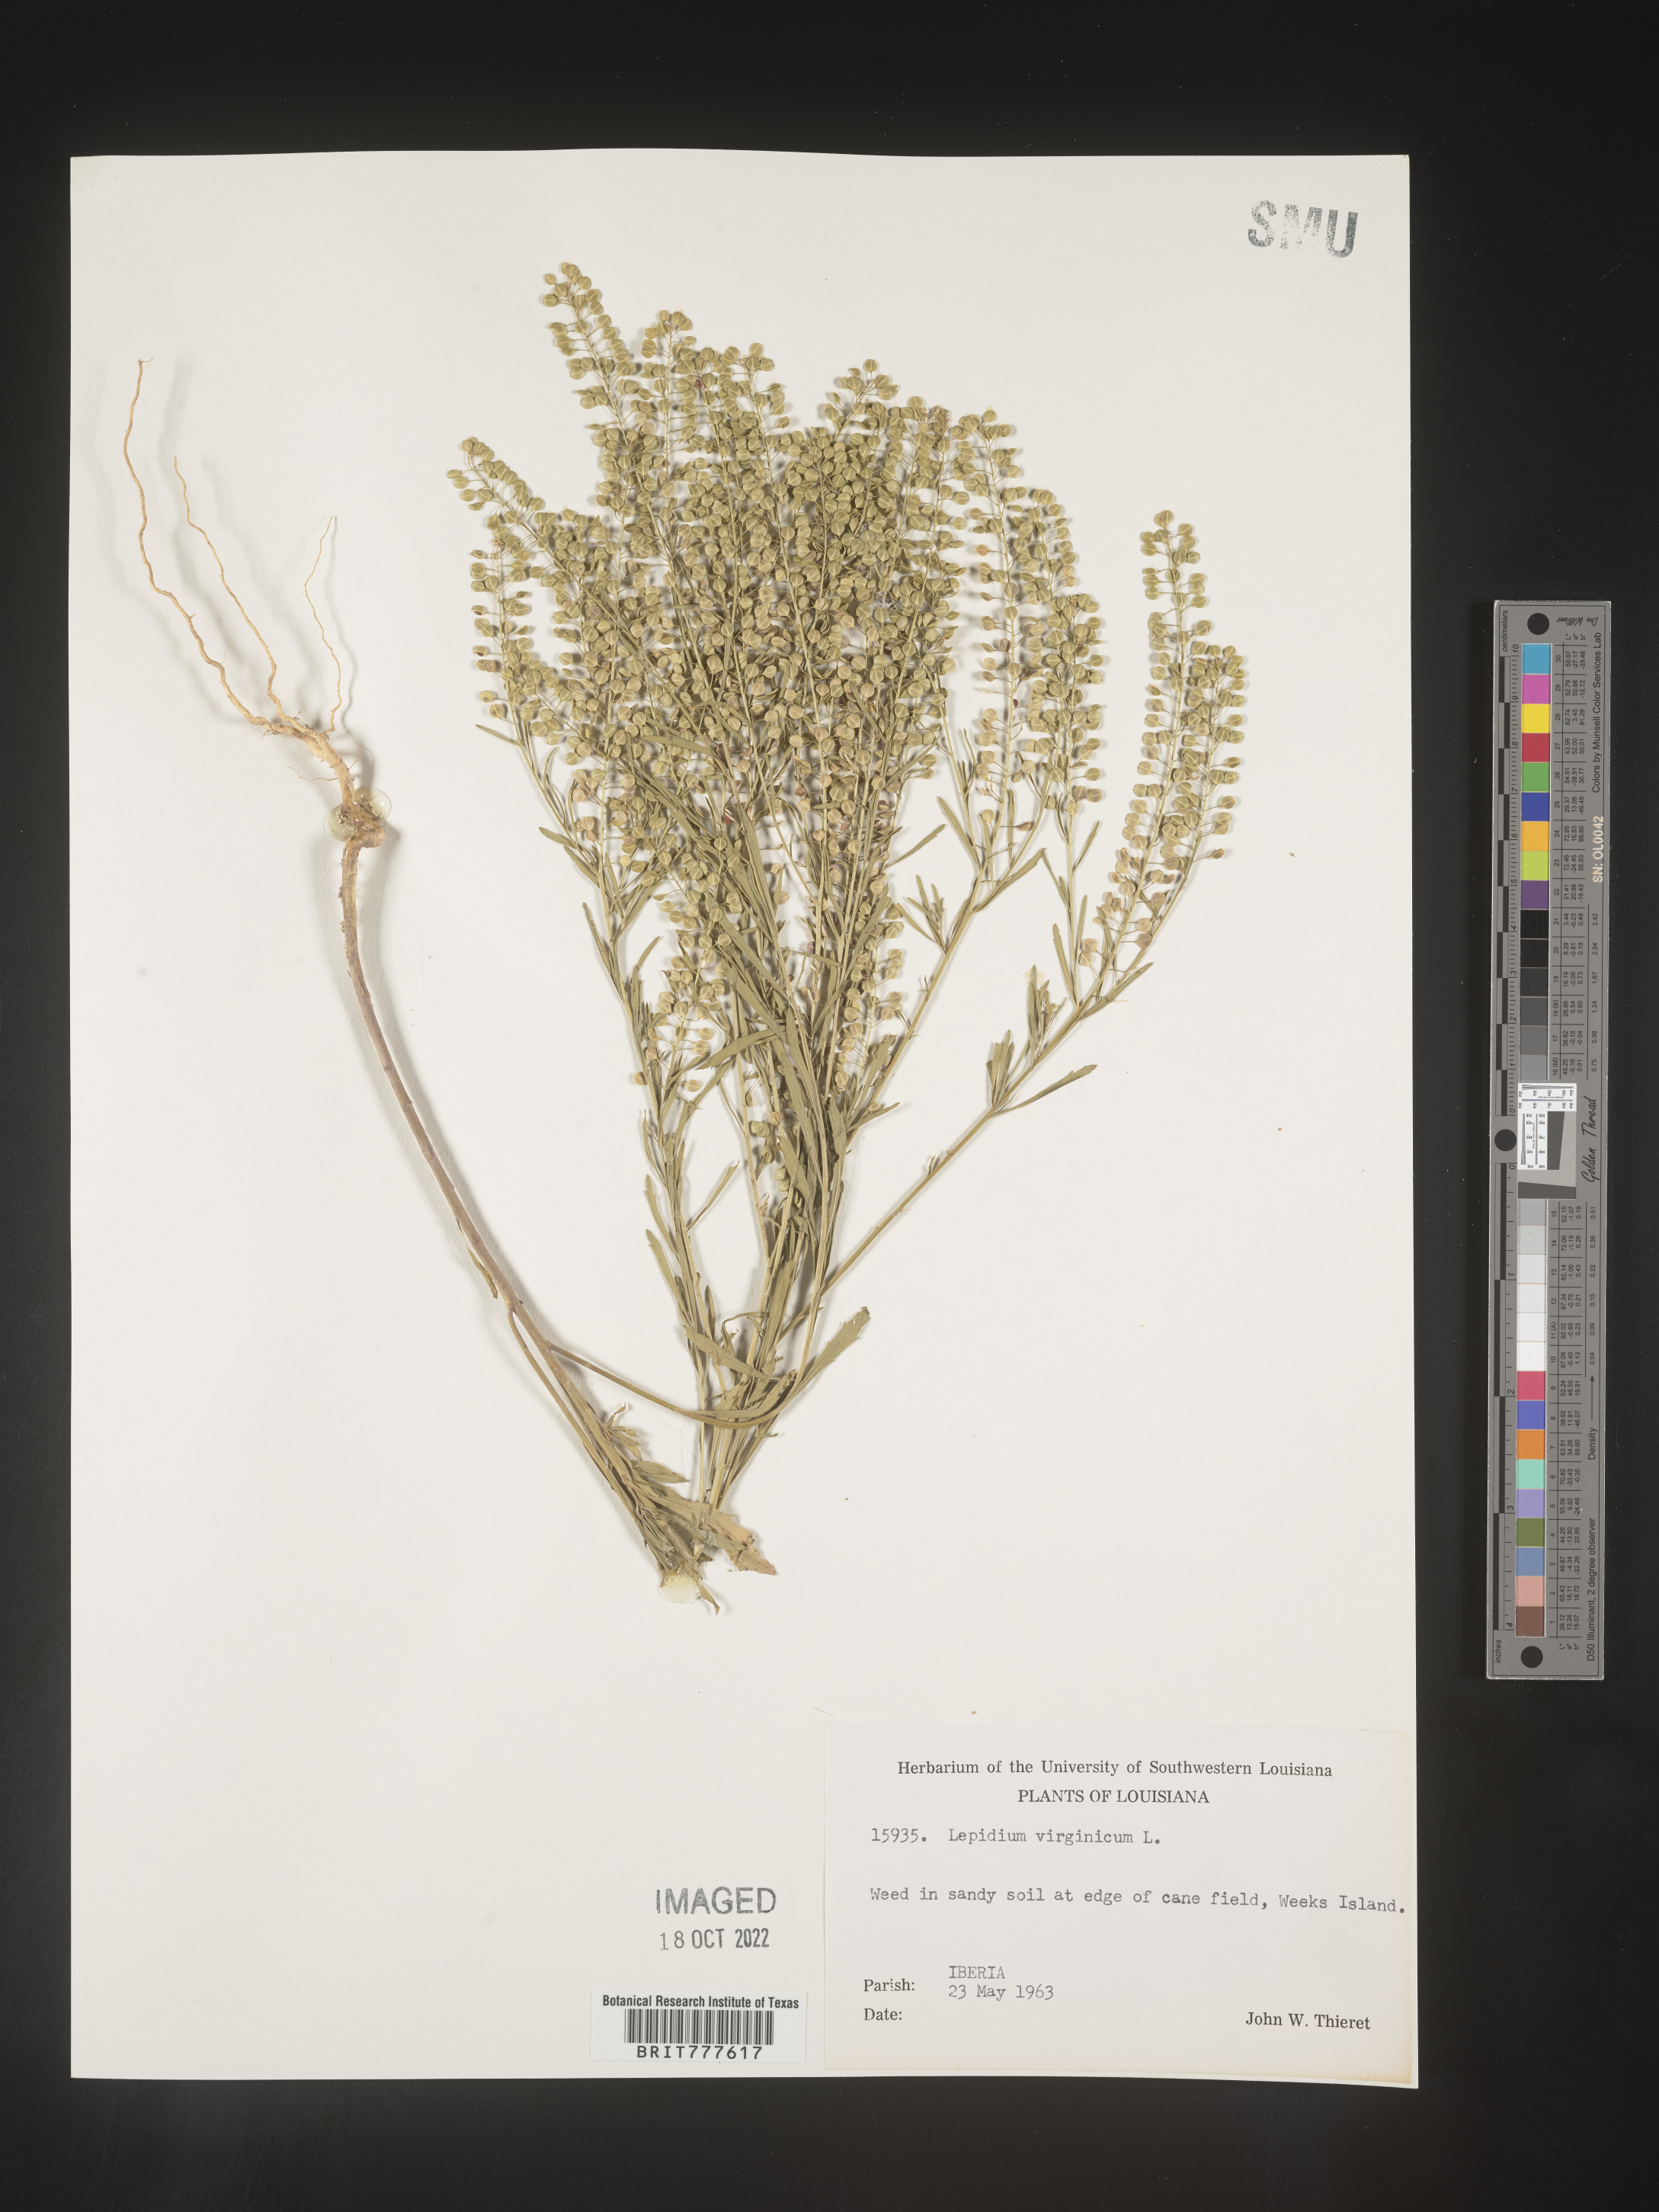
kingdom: Plantae
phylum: Tracheophyta
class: Magnoliopsida
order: Brassicales
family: Brassicaceae
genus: Lepidium
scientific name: Lepidium virginicum
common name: Least pepperwort
